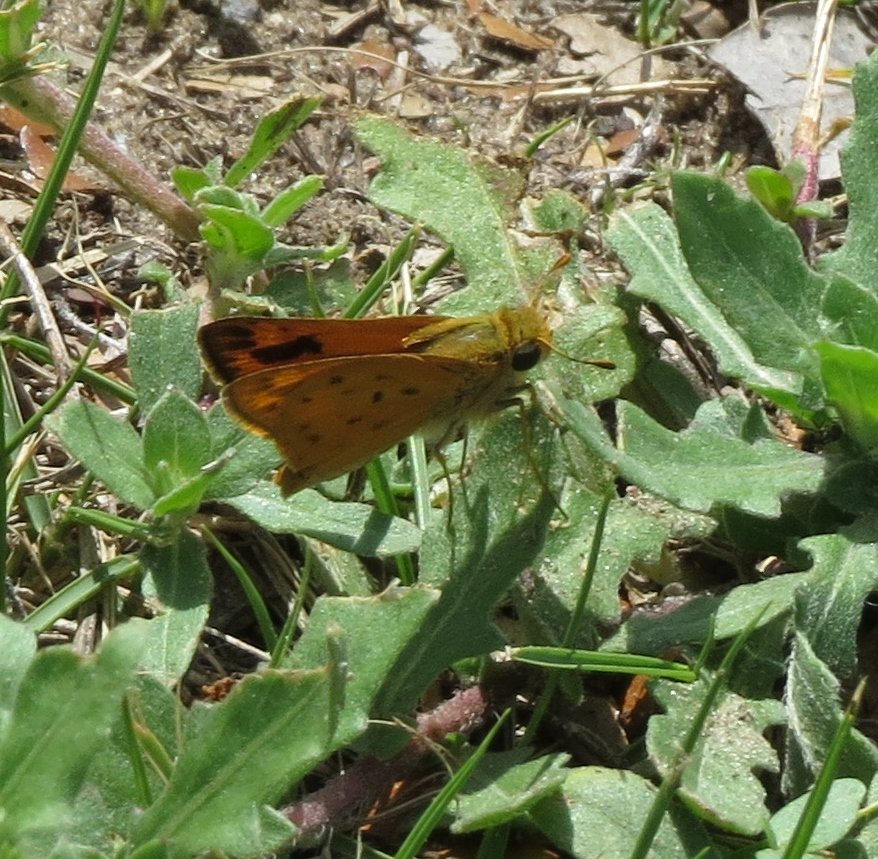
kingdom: Animalia
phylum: Arthropoda
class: Insecta
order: Lepidoptera
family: Hesperiidae
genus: Hylephila
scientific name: Hylephila phyleus
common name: Fiery Skipper
